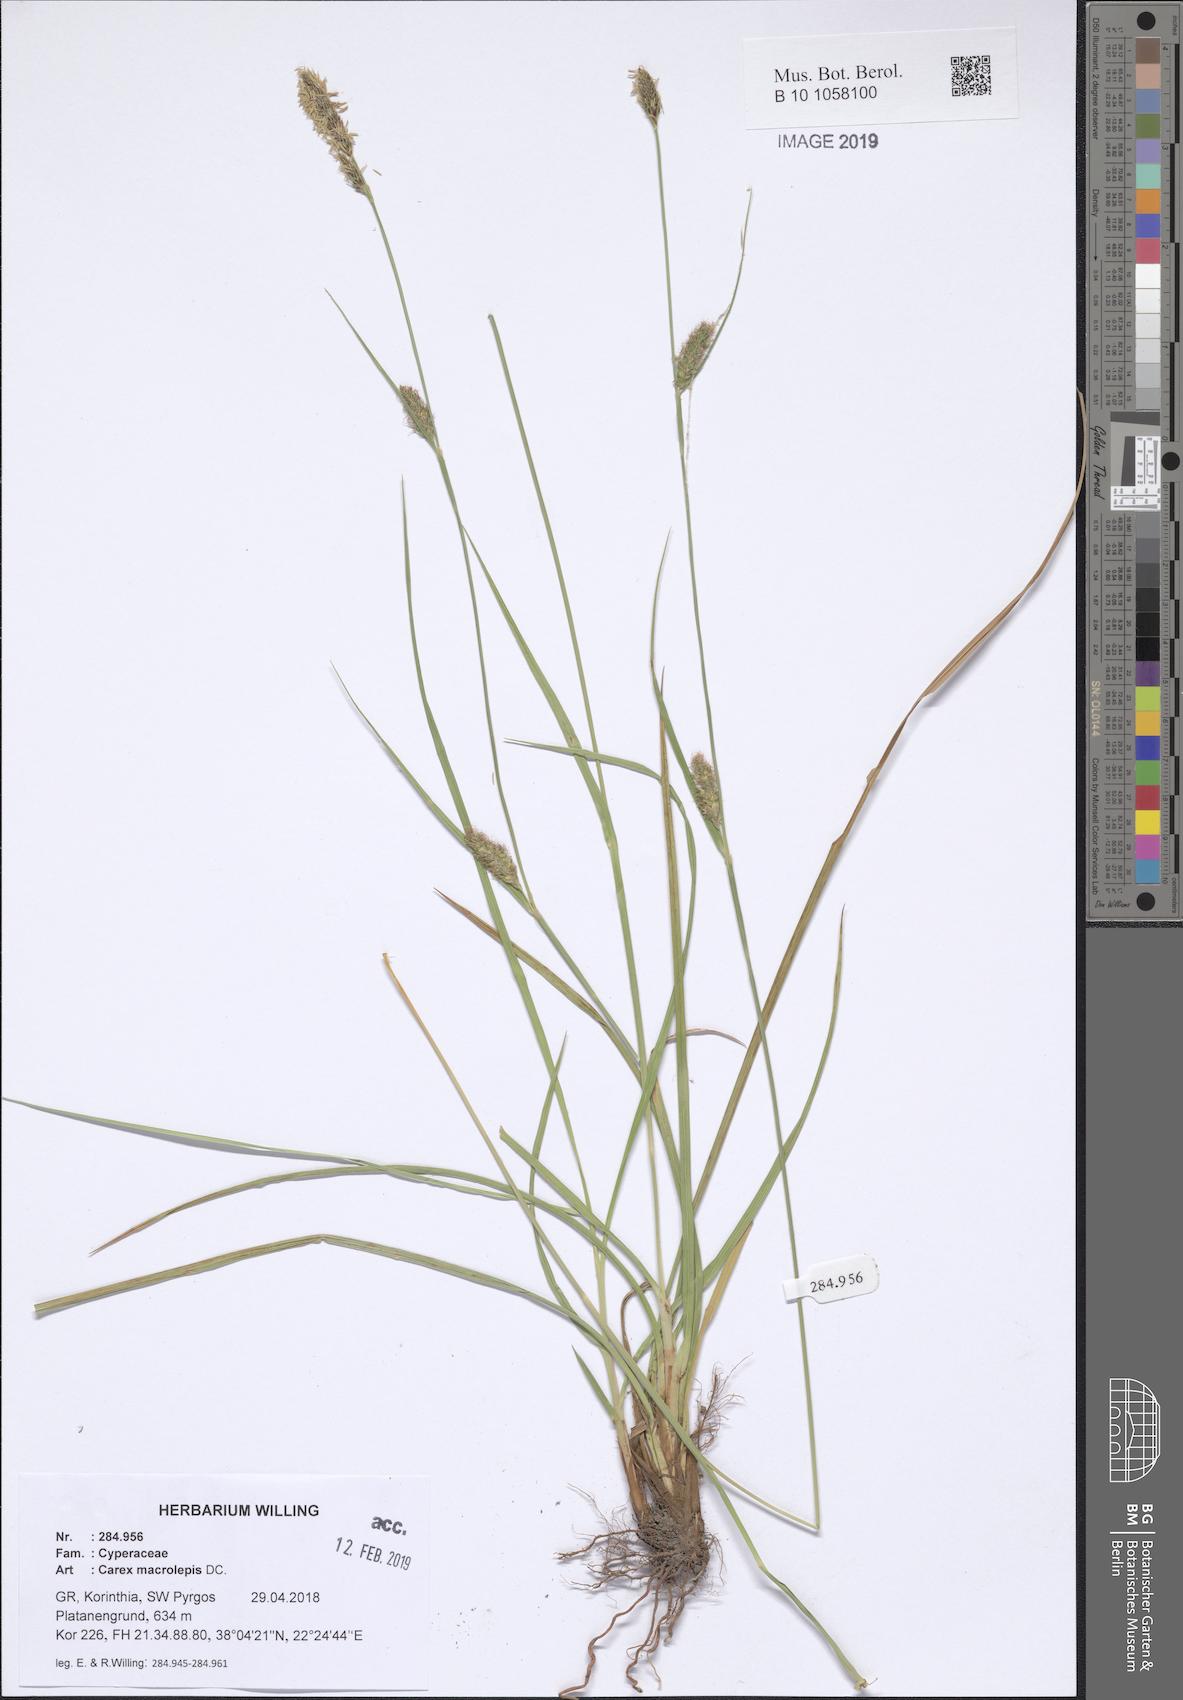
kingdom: Plantae
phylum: Tracheophyta
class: Liliopsida
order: Poales
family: Cyperaceae
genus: Carex
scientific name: Carex macrolepis
